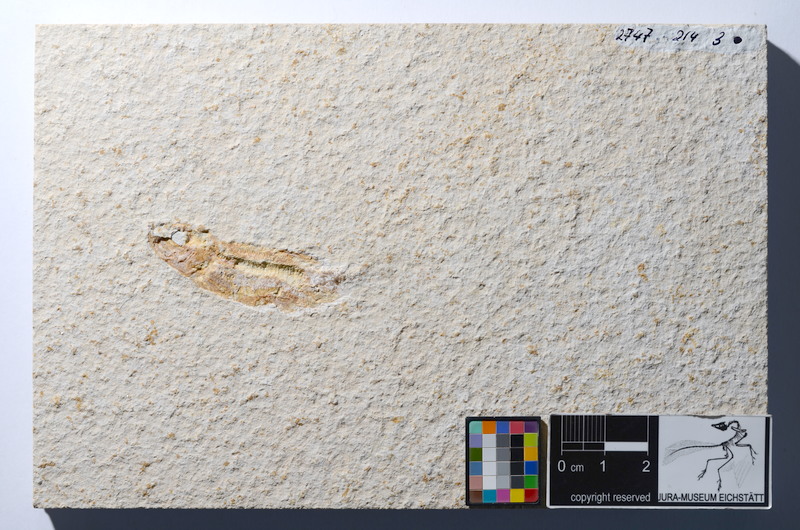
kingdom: Animalia
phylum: Chordata
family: Ascalaboidae
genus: Tharsis
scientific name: Tharsis dubius
